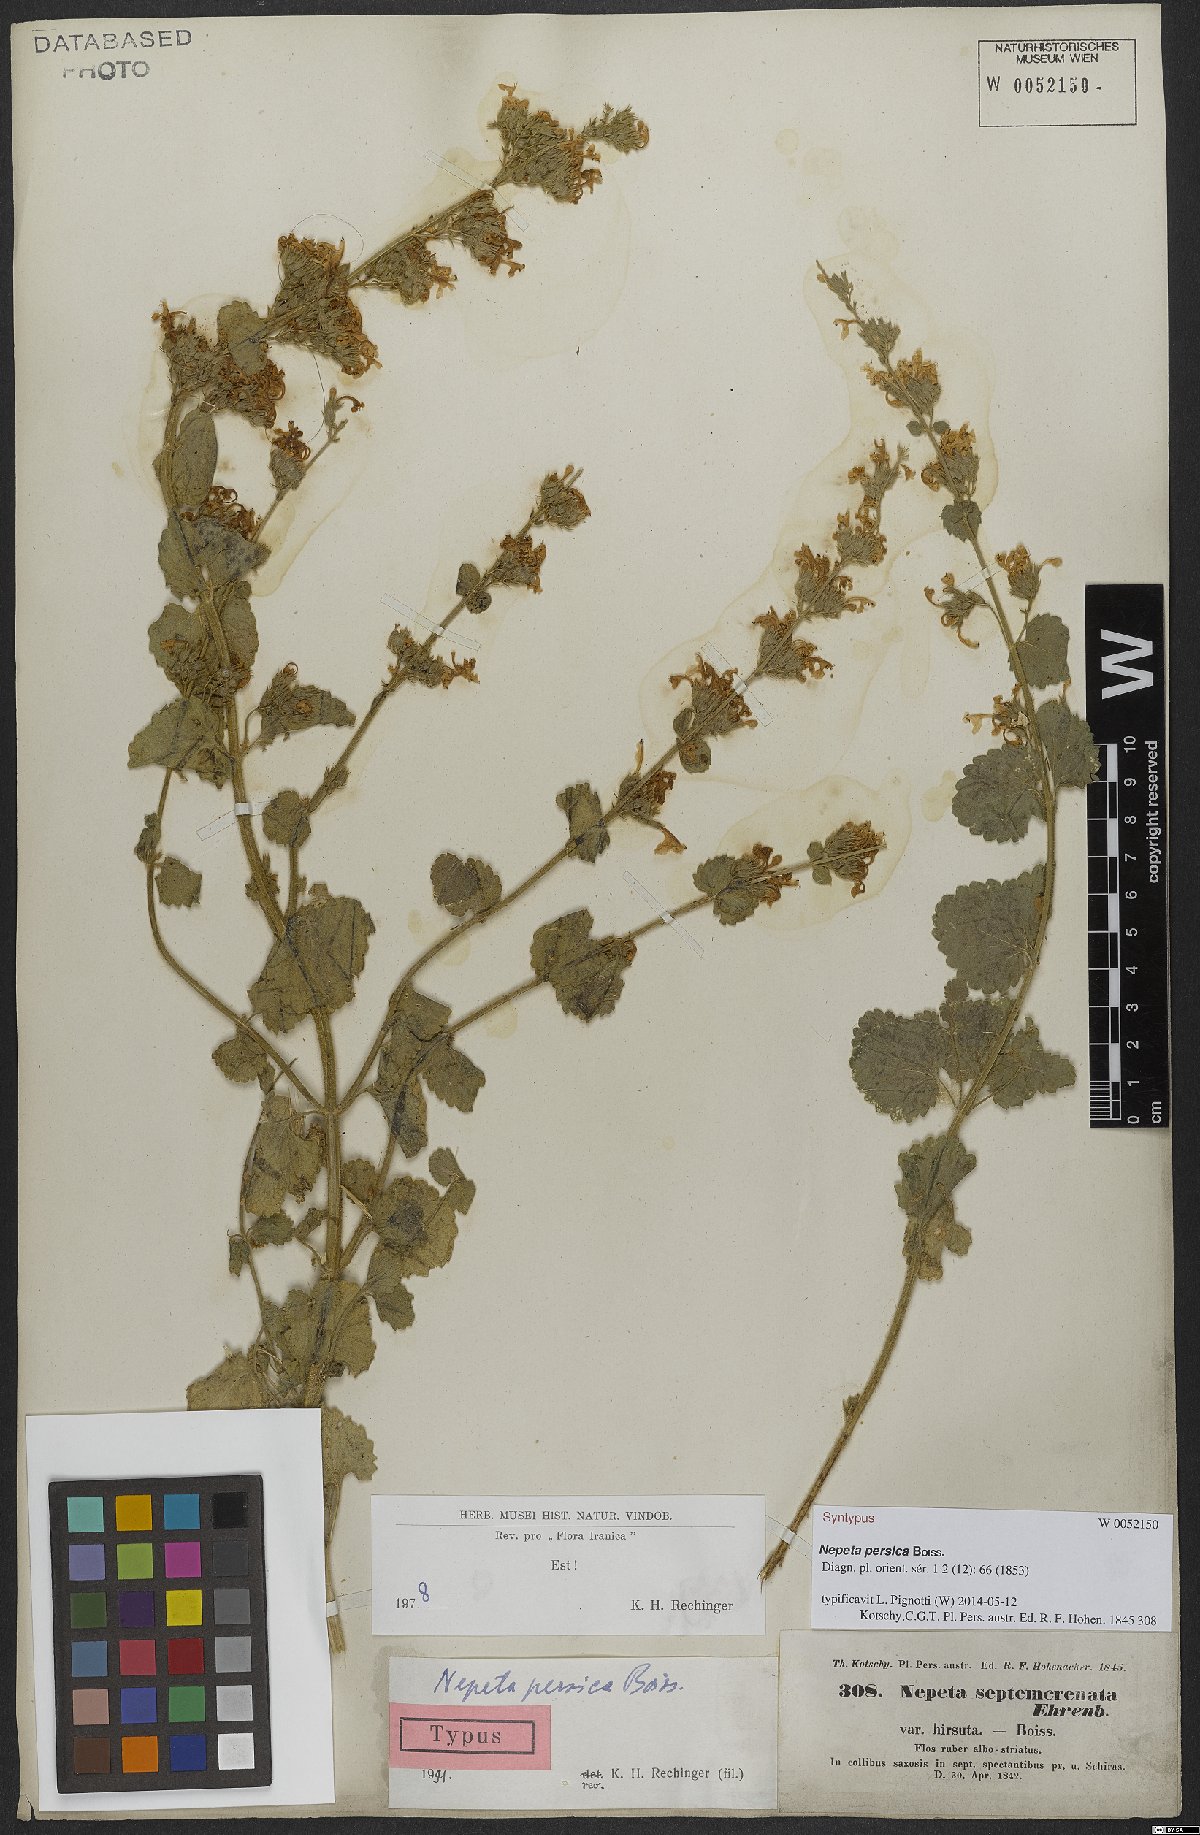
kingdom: Plantae
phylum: Tracheophyta
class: Magnoliopsida
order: Lamiales
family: Lamiaceae
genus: Nepeta
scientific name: Nepeta persica
